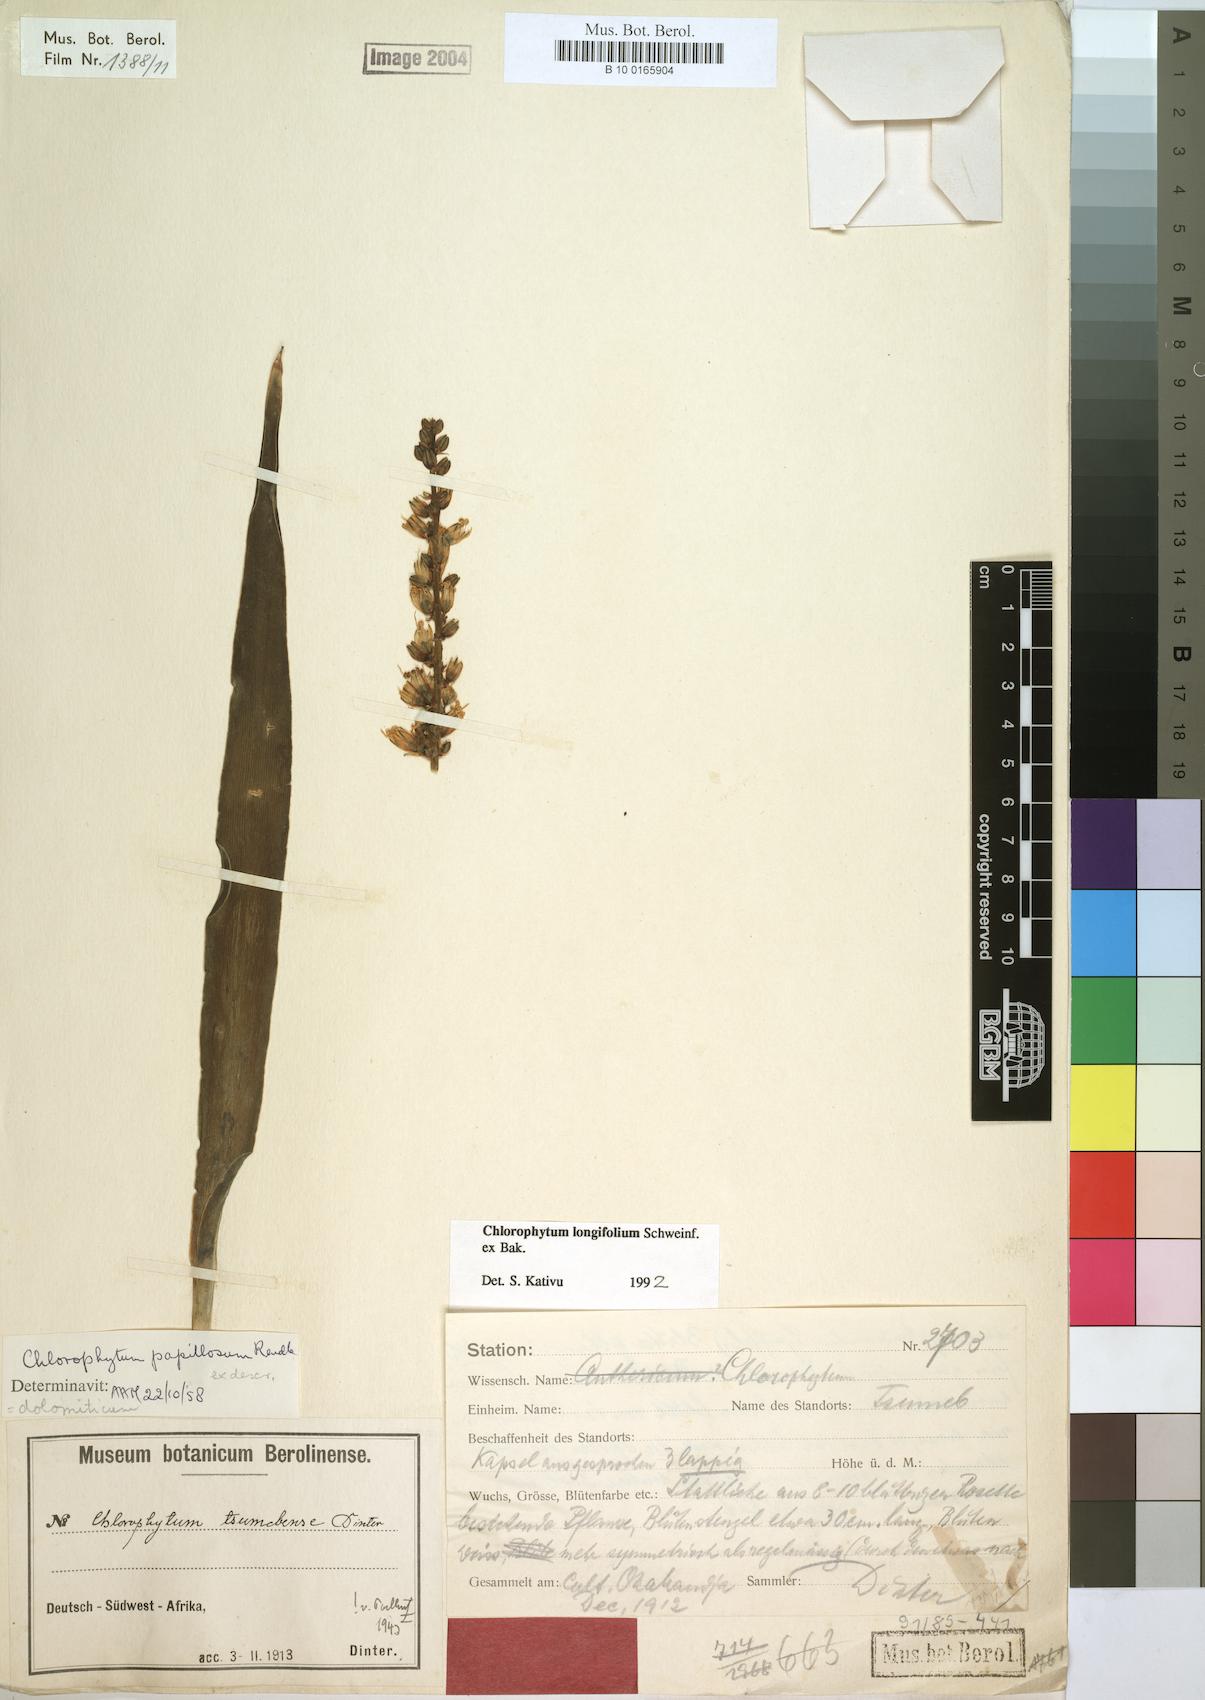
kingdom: Plantae
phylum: Tracheophyta
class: Liliopsida
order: Asparagales
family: Asparagaceae
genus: Chlorophytum
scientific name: Chlorophytum longifolium
